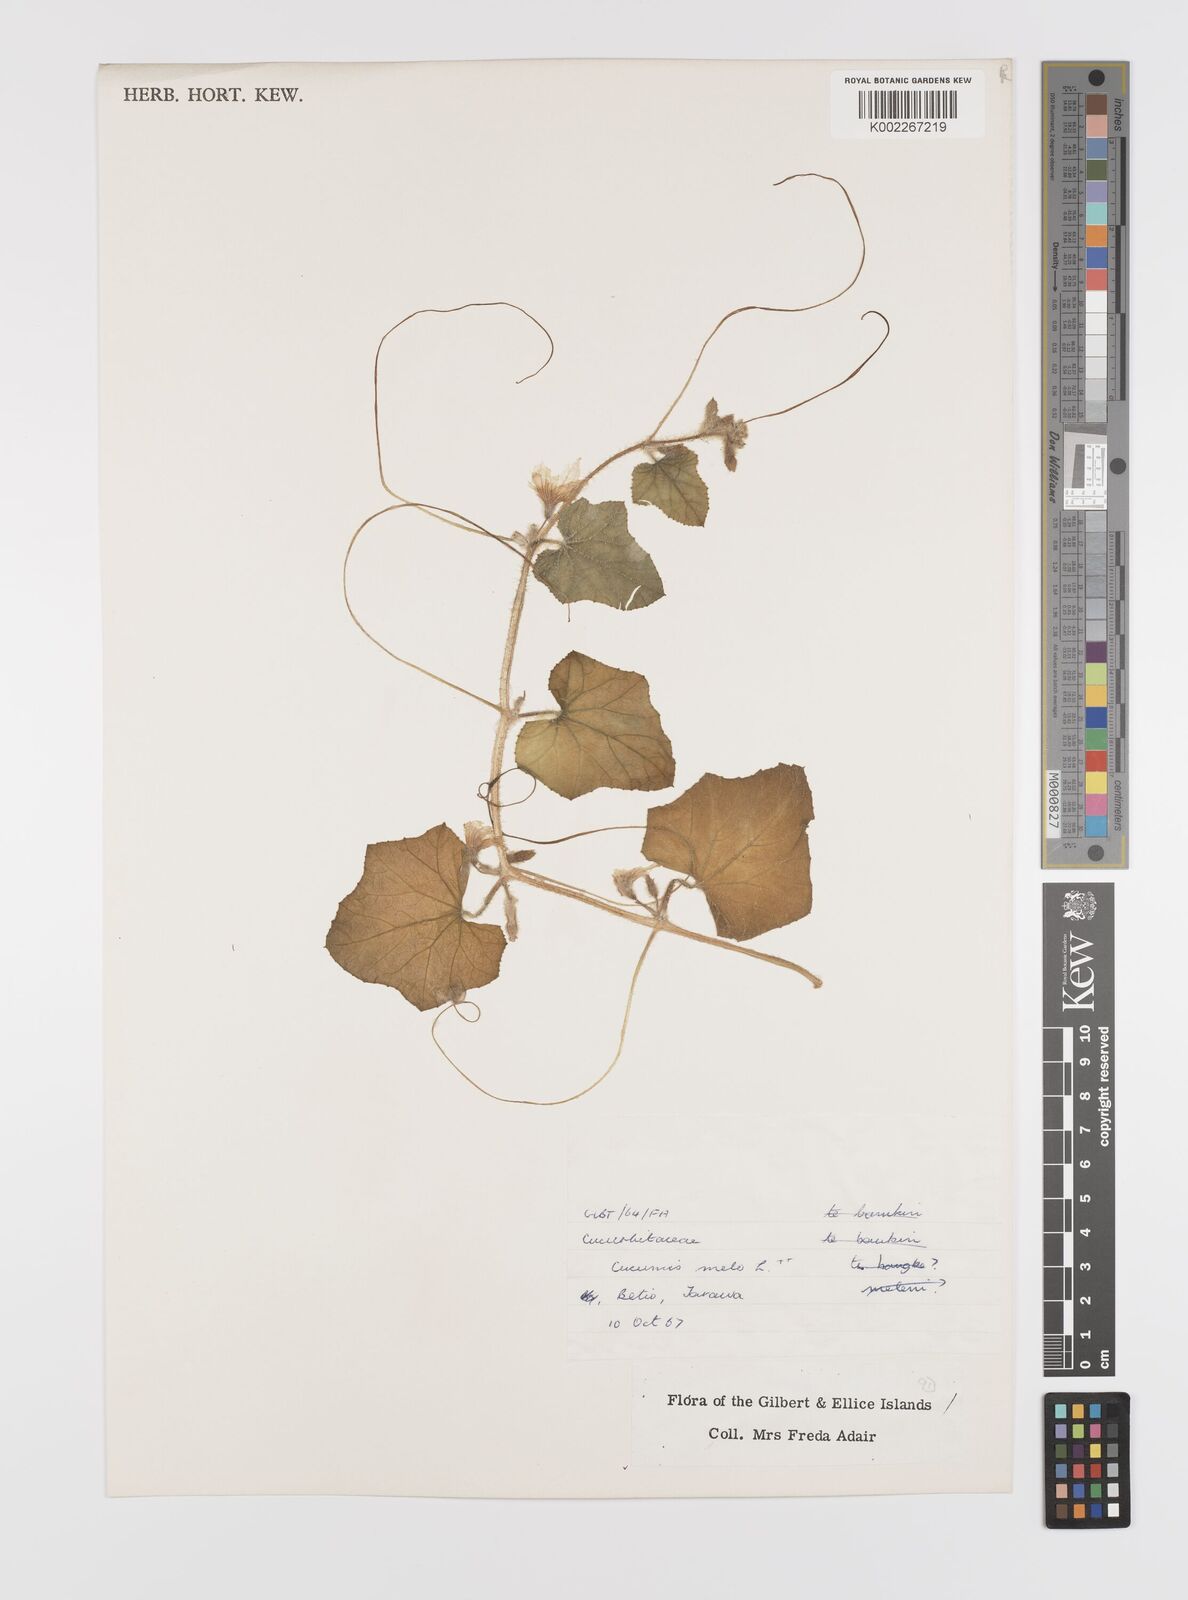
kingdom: Plantae
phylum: Tracheophyta
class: Magnoliopsida
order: Cucurbitales
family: Cucurbitaceae
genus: Cucumis
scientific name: Cucumis melo
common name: Melon
